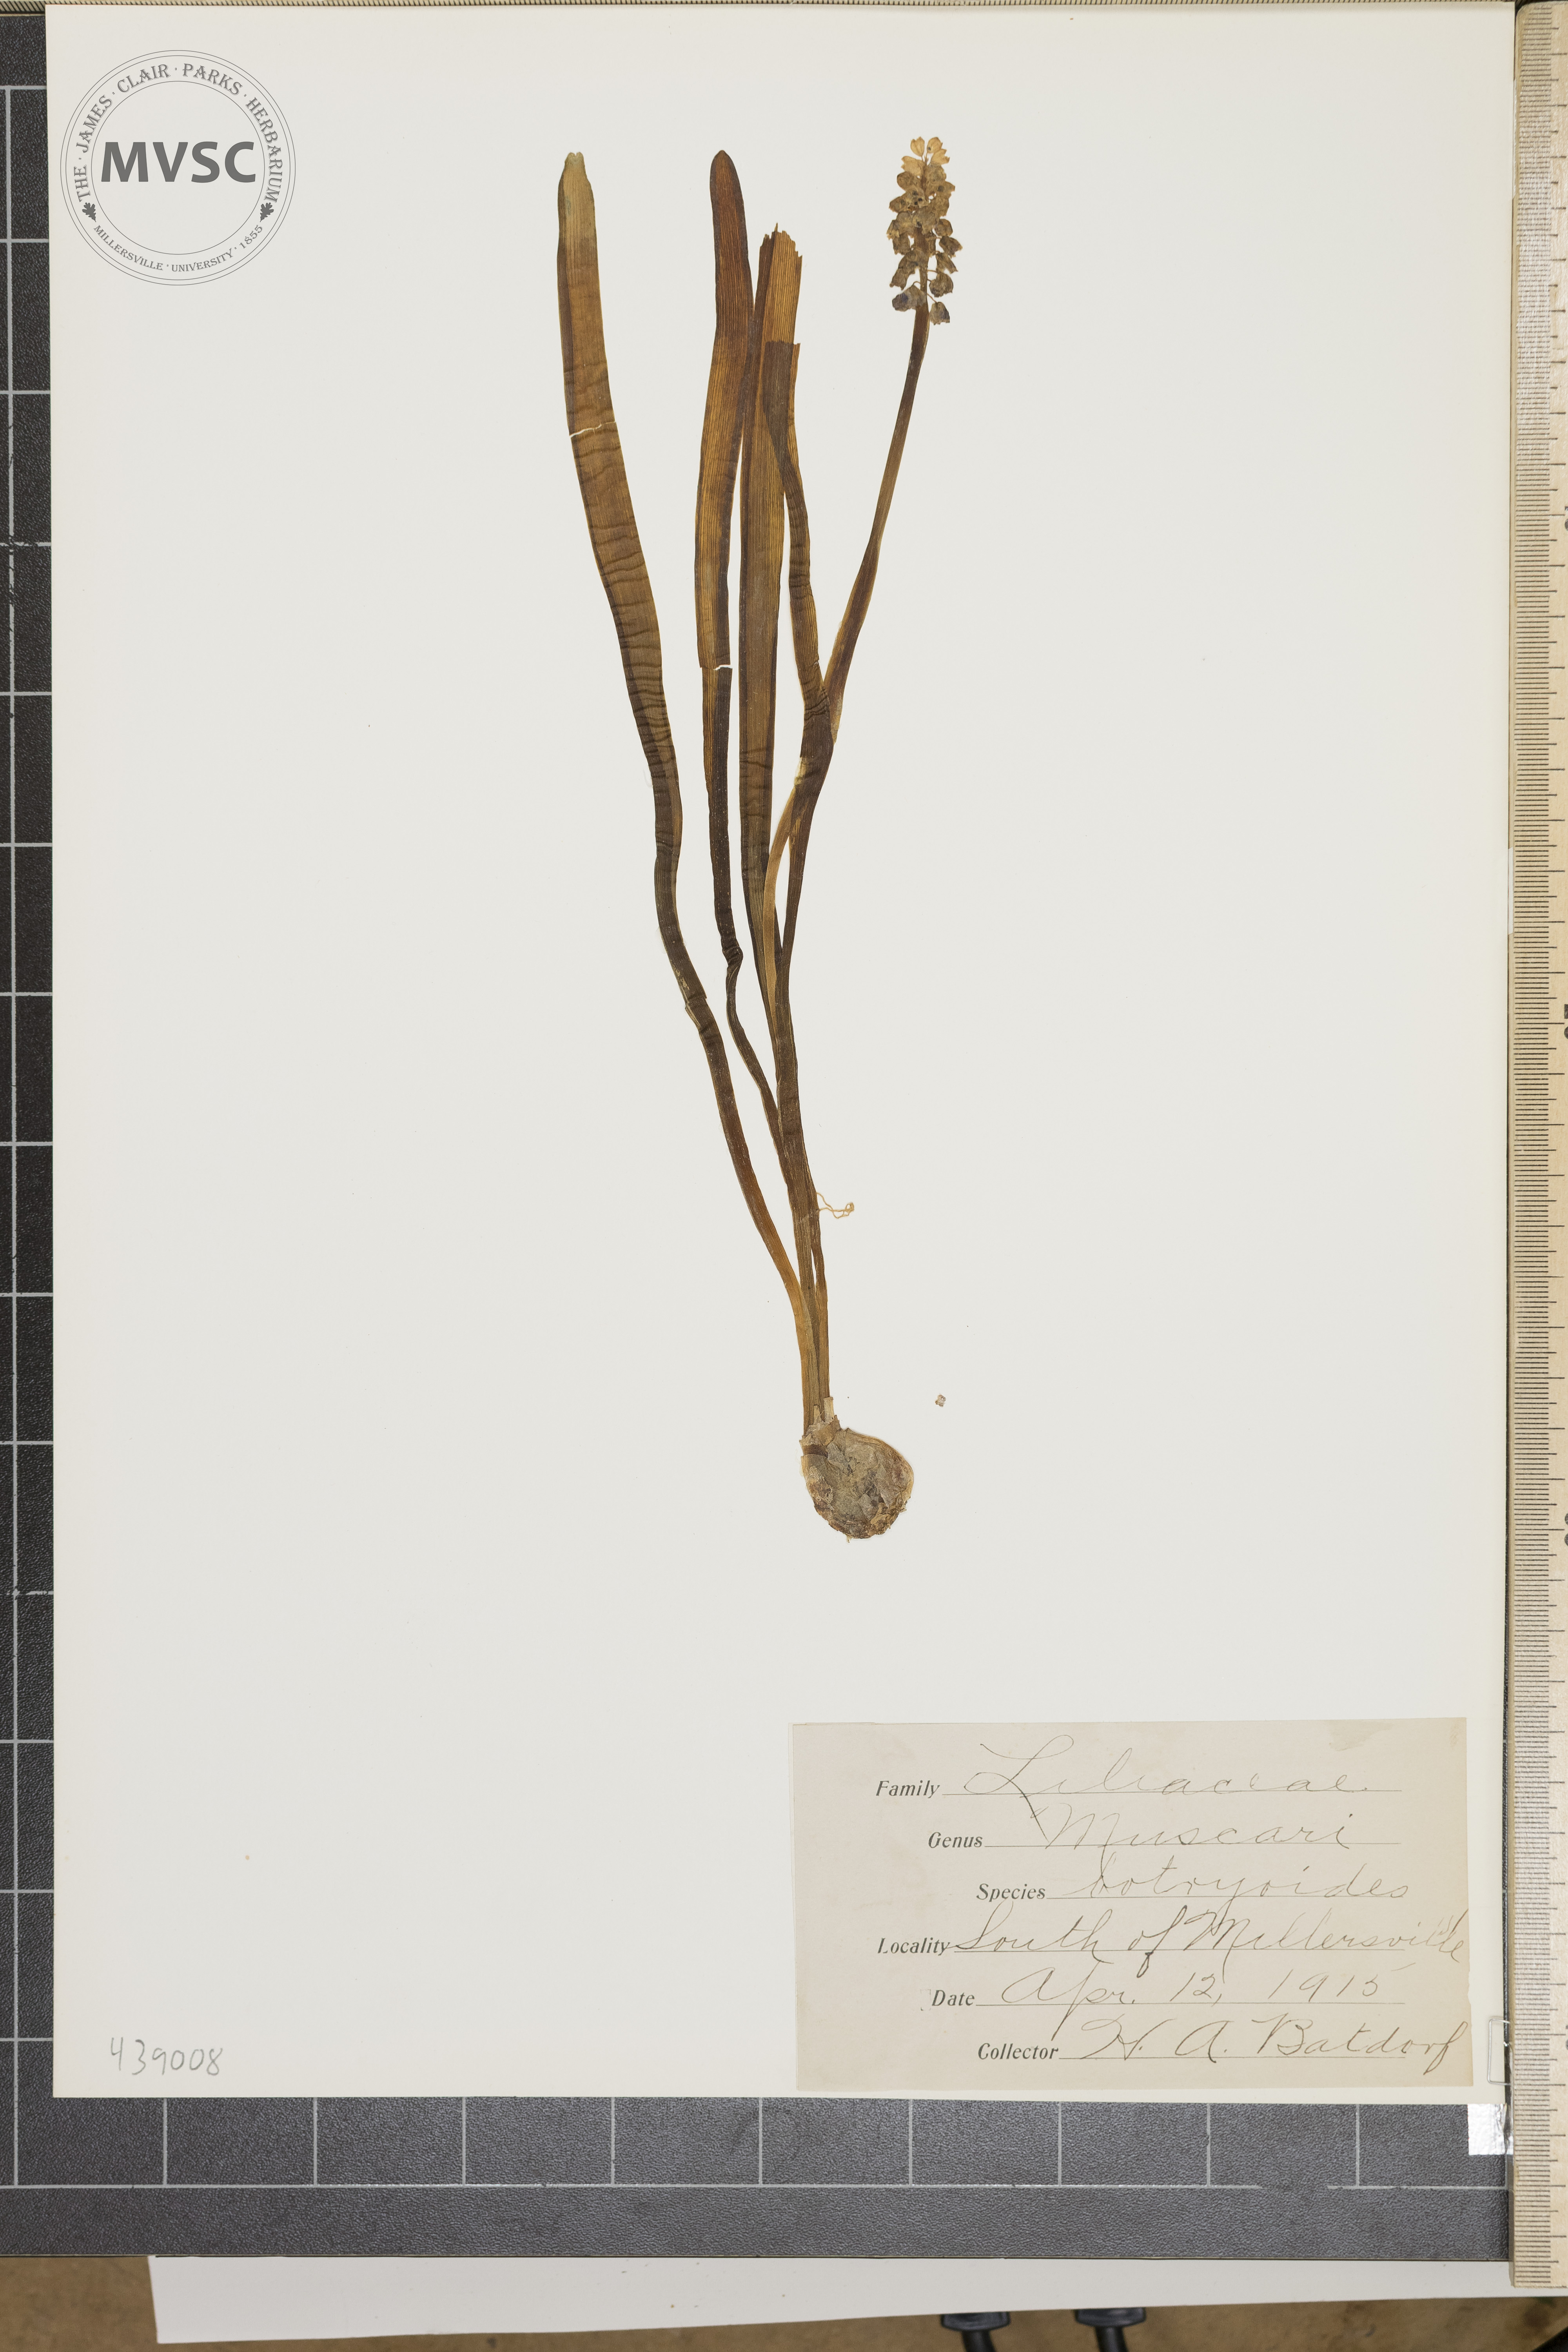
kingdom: Plantae
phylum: Tracheophyta
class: Liliopsida
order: Asparagales
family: Asparagaceae
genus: Muscari
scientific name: Muscari botryoides
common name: Compact grape-hyacinth
